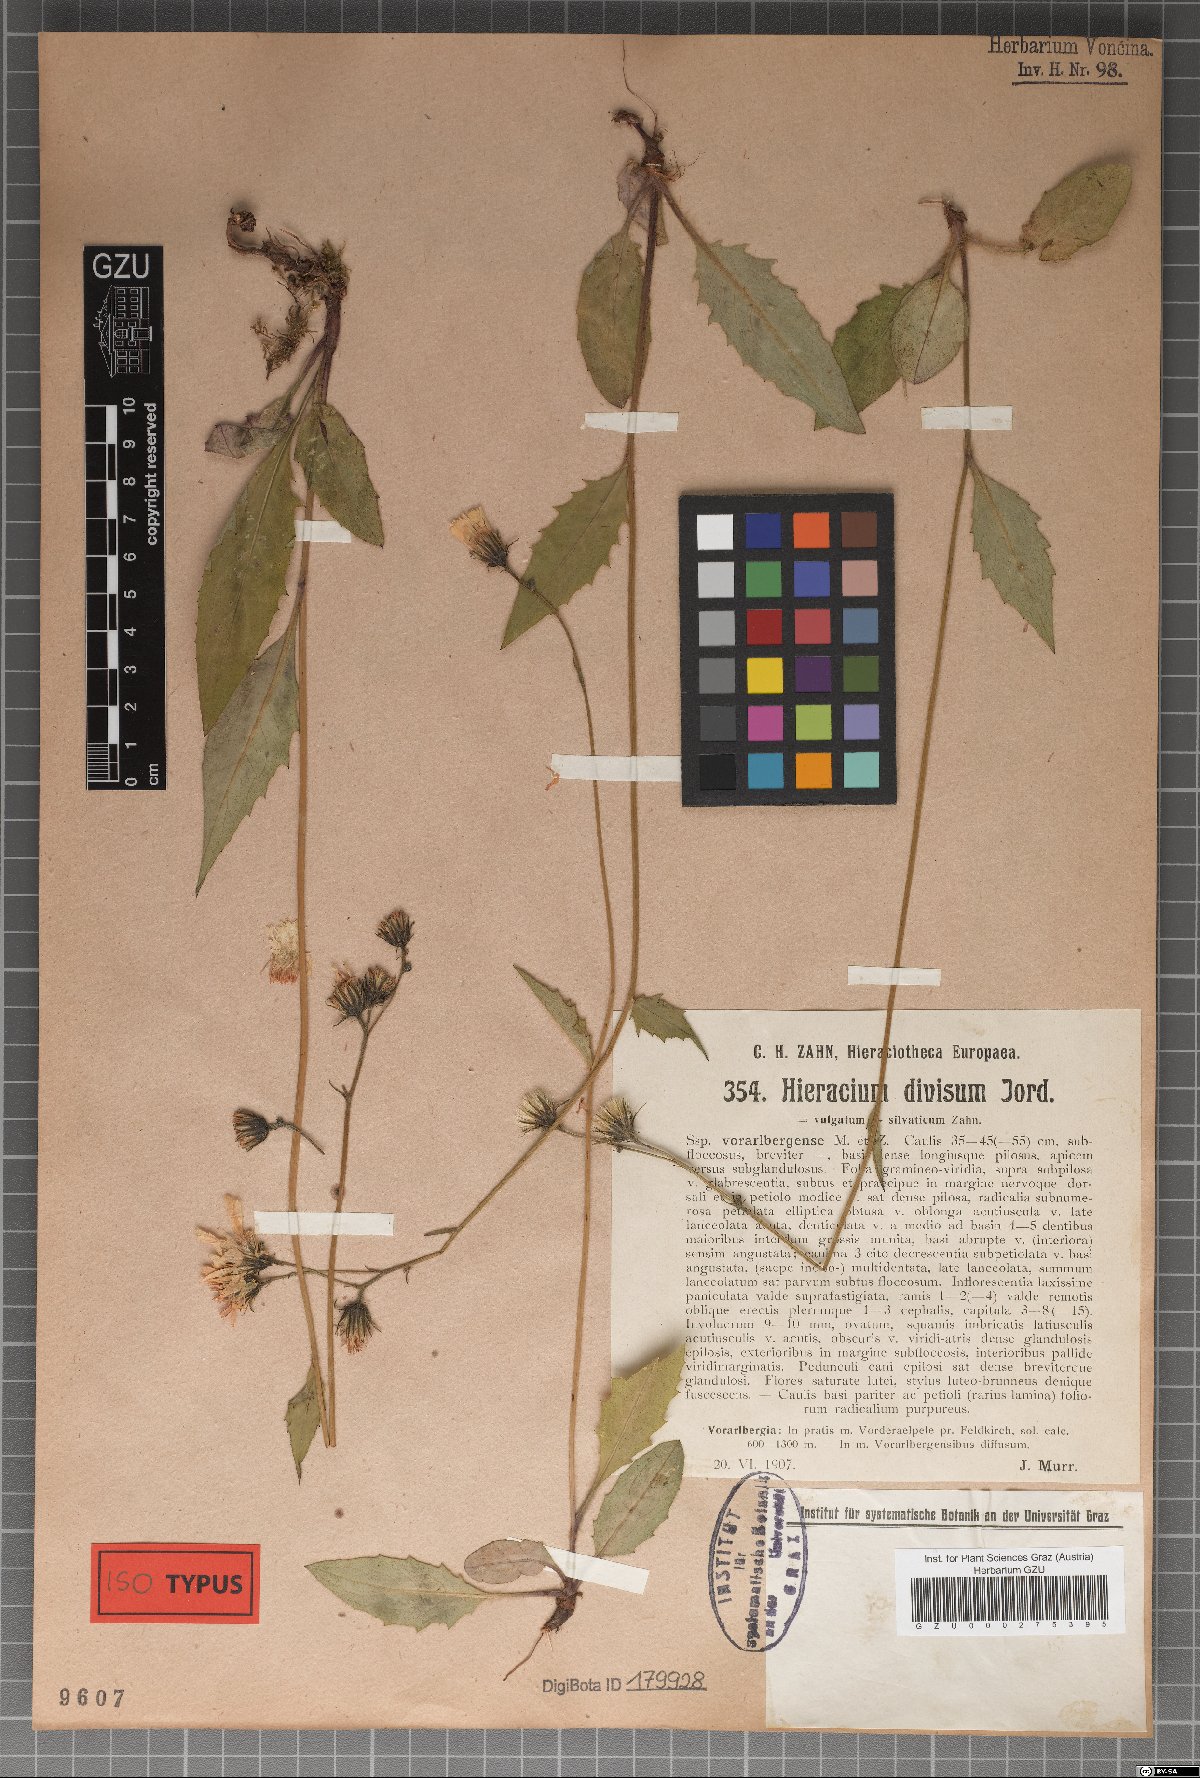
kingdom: Plantae
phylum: Tracheophyta
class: Magnoliopsida
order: Asterales
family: Asteraceae
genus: Hieracium
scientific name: Hieracium diaphanoides
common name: Fine-bracted hawkweed
